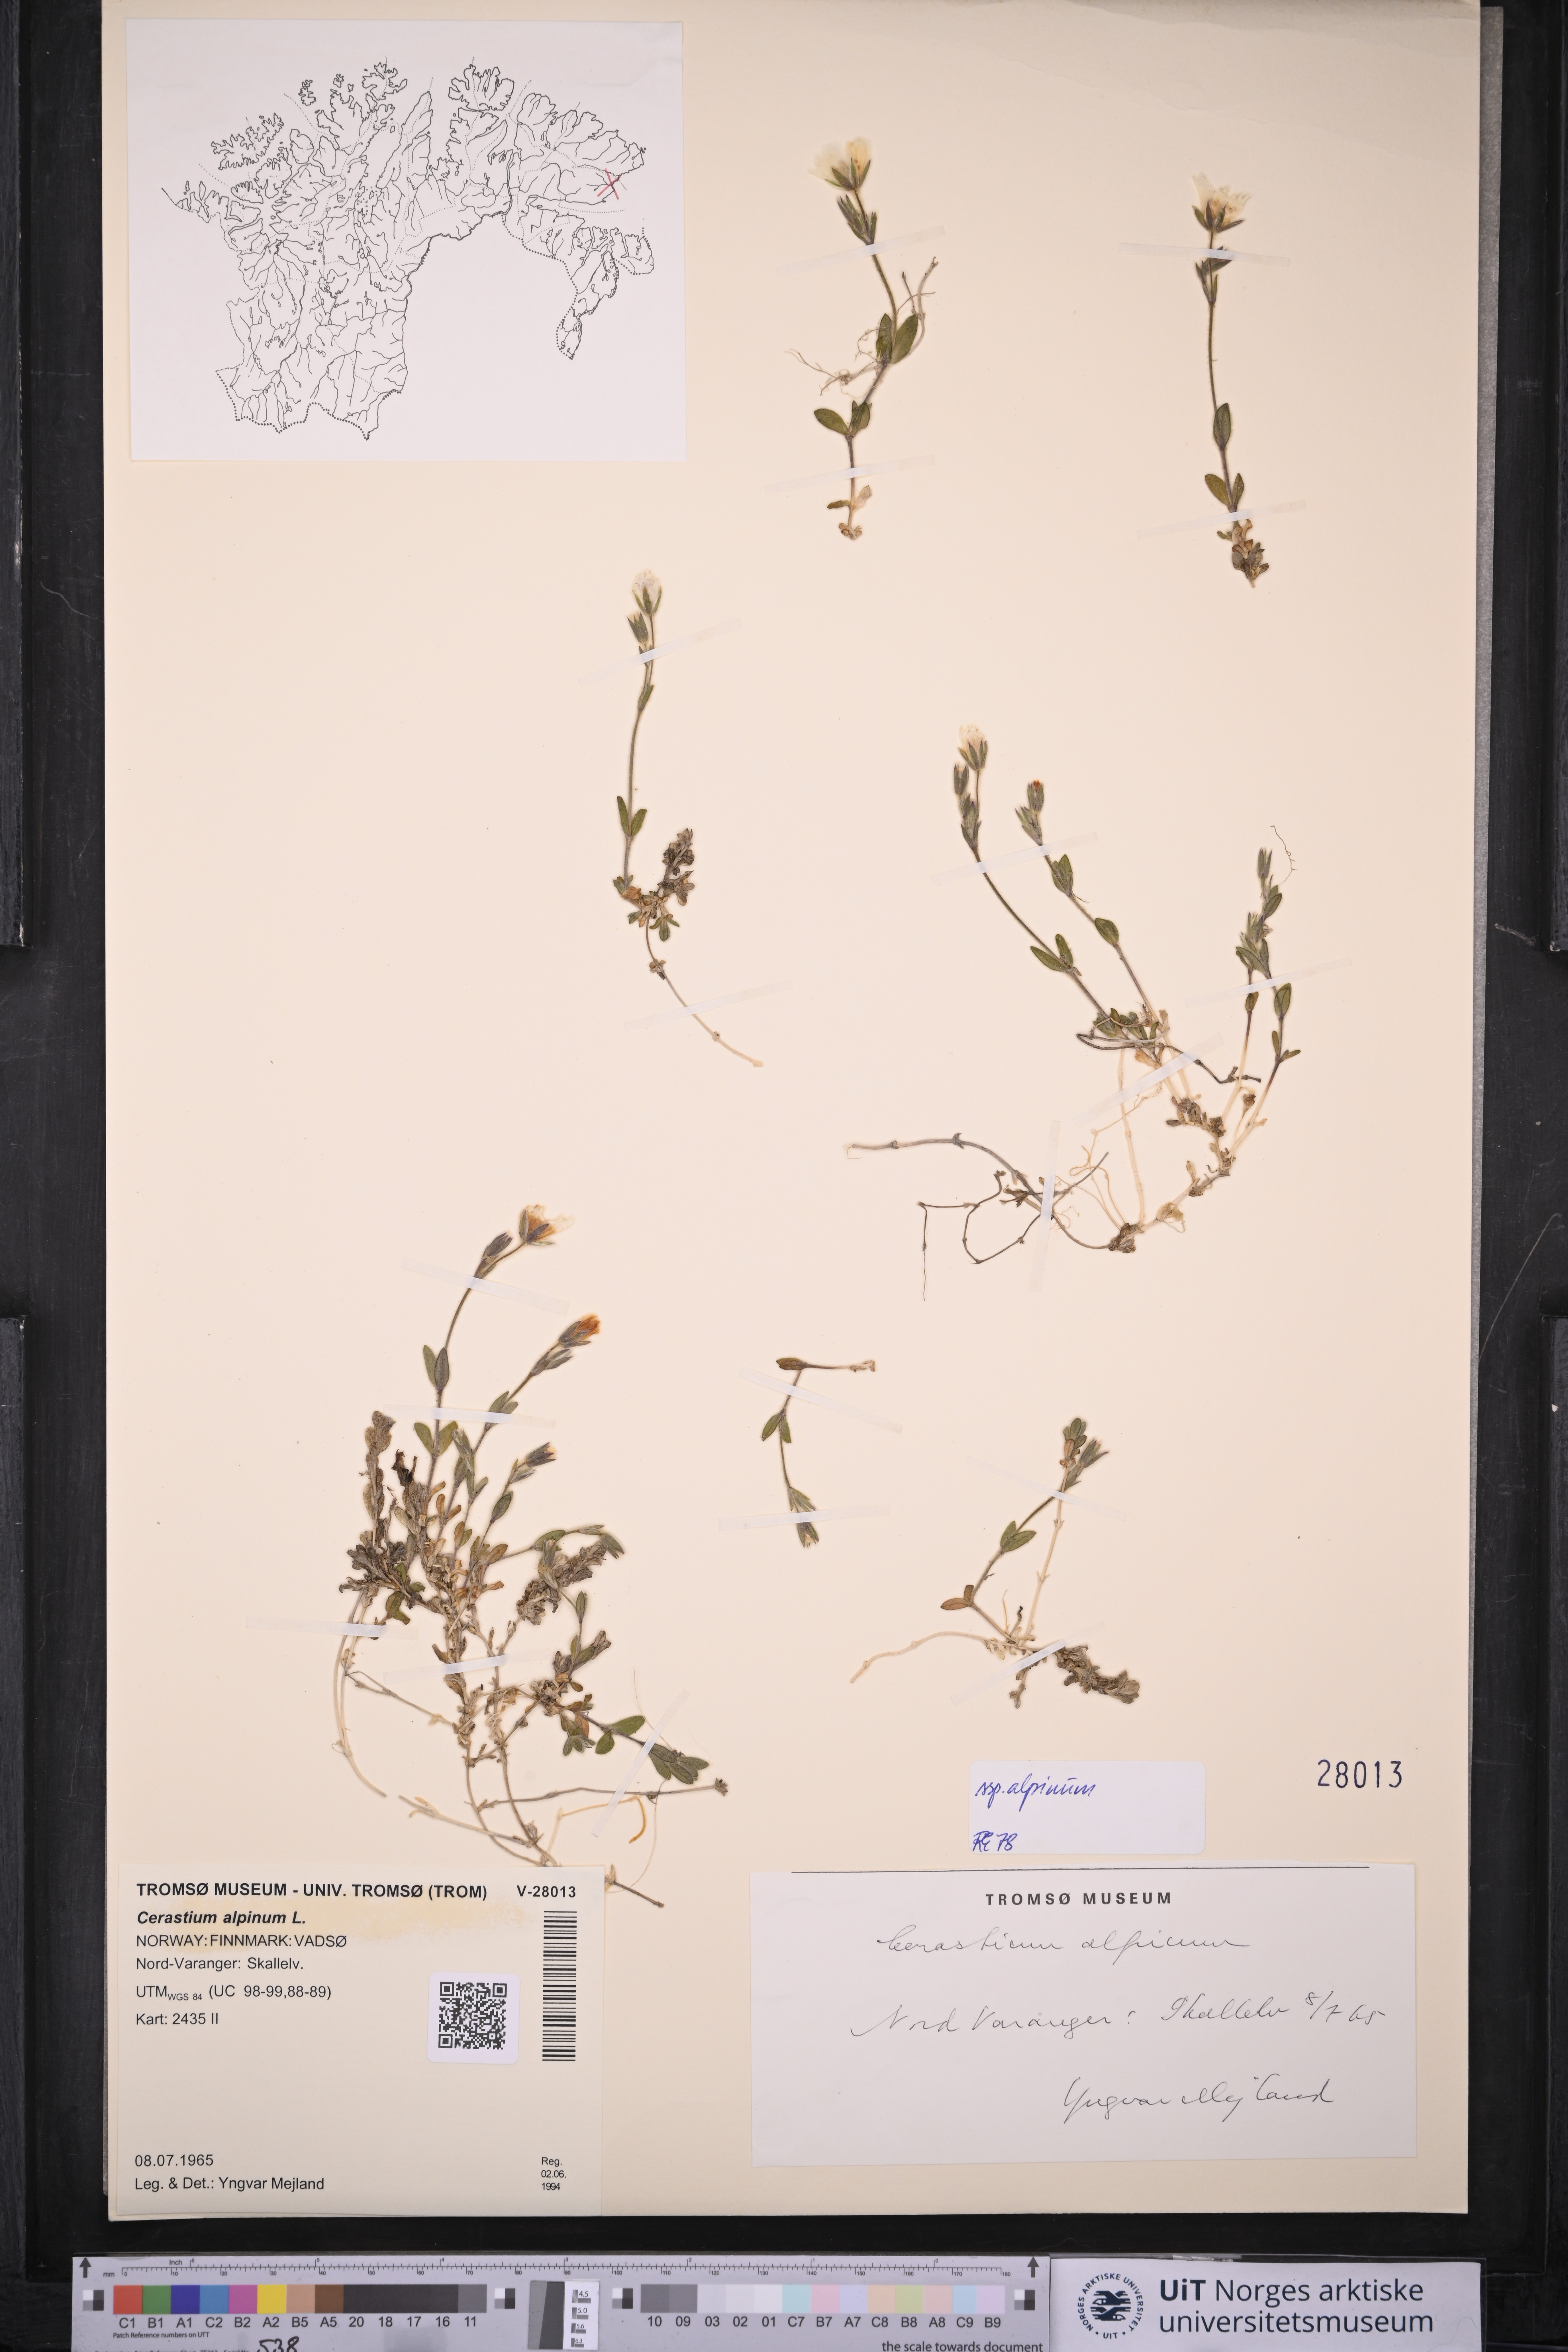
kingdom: Plantae
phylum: Tracheophyta
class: Magnoliopsida
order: Caryophyllales
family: Caryophyllaceae
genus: Cerastium
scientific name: Cerastium alpinum
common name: Alpine mouse-ear
